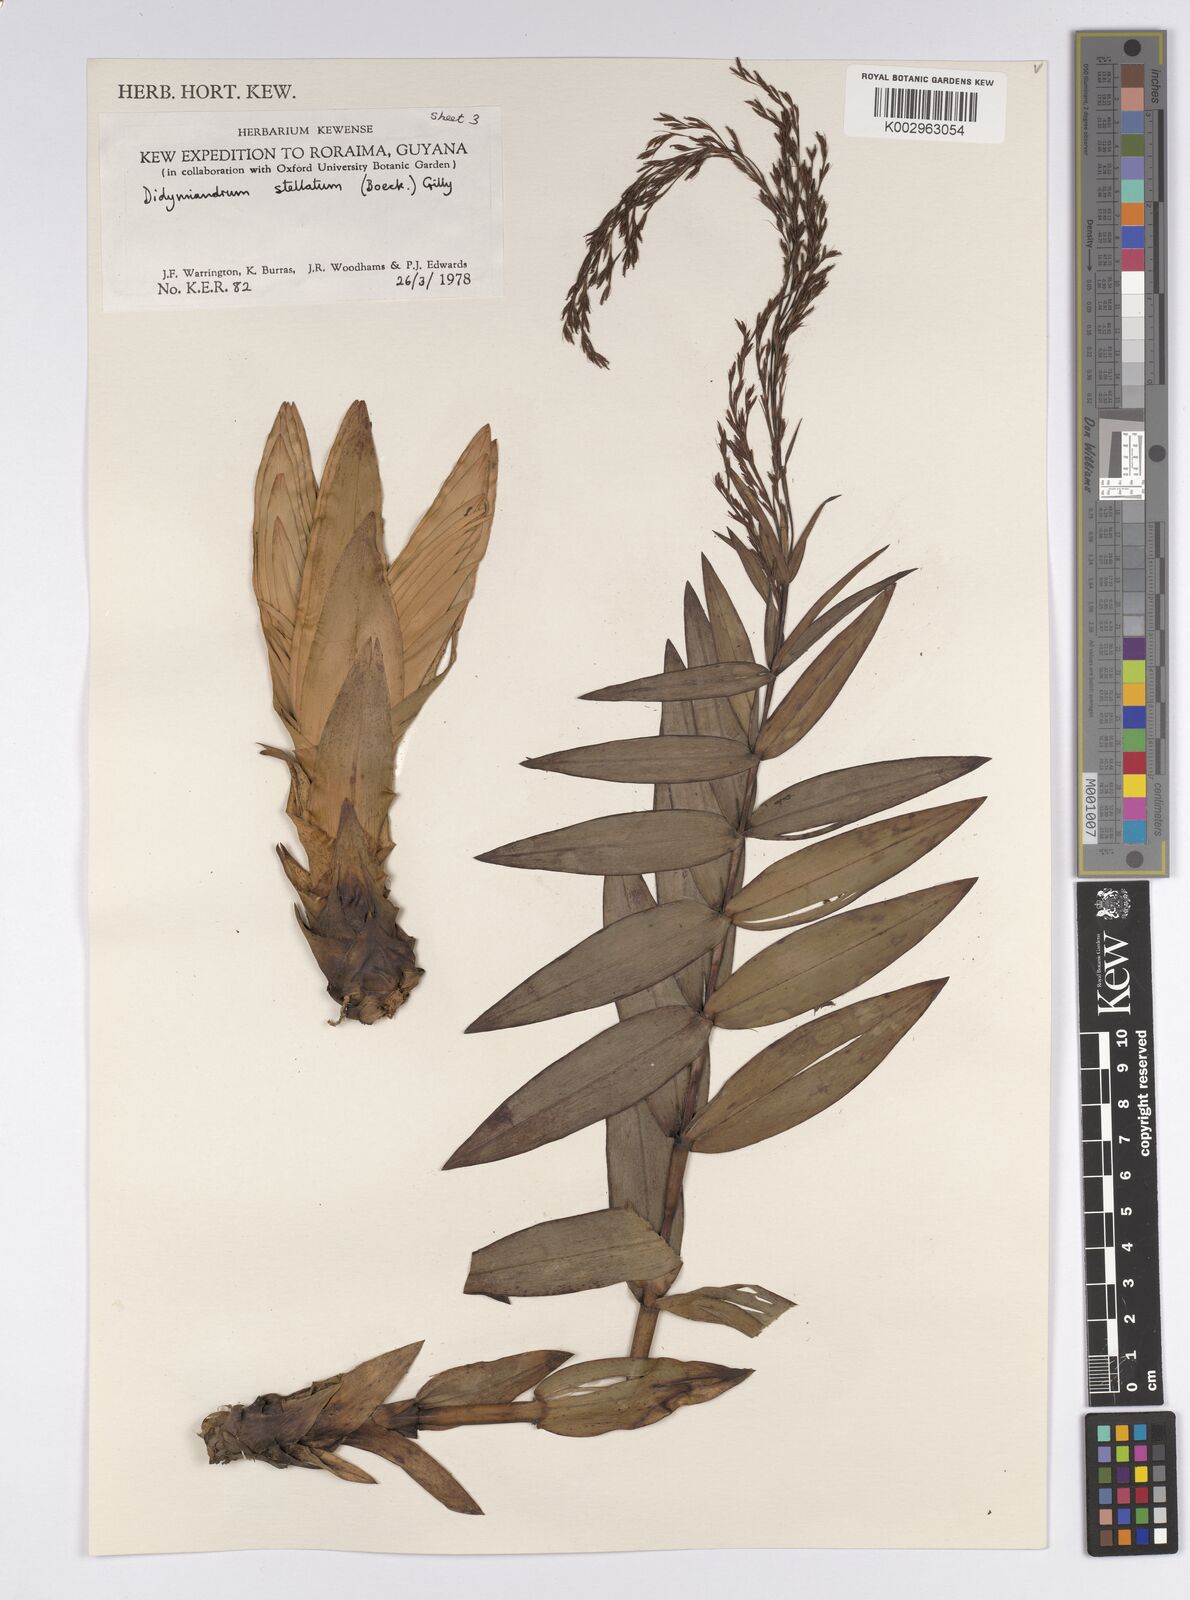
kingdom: Plantae
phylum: Tracheophyta
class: Liliopsida
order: Poales
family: Cyperaceae
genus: Didymiandrum
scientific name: Didymiandrum stellatum
